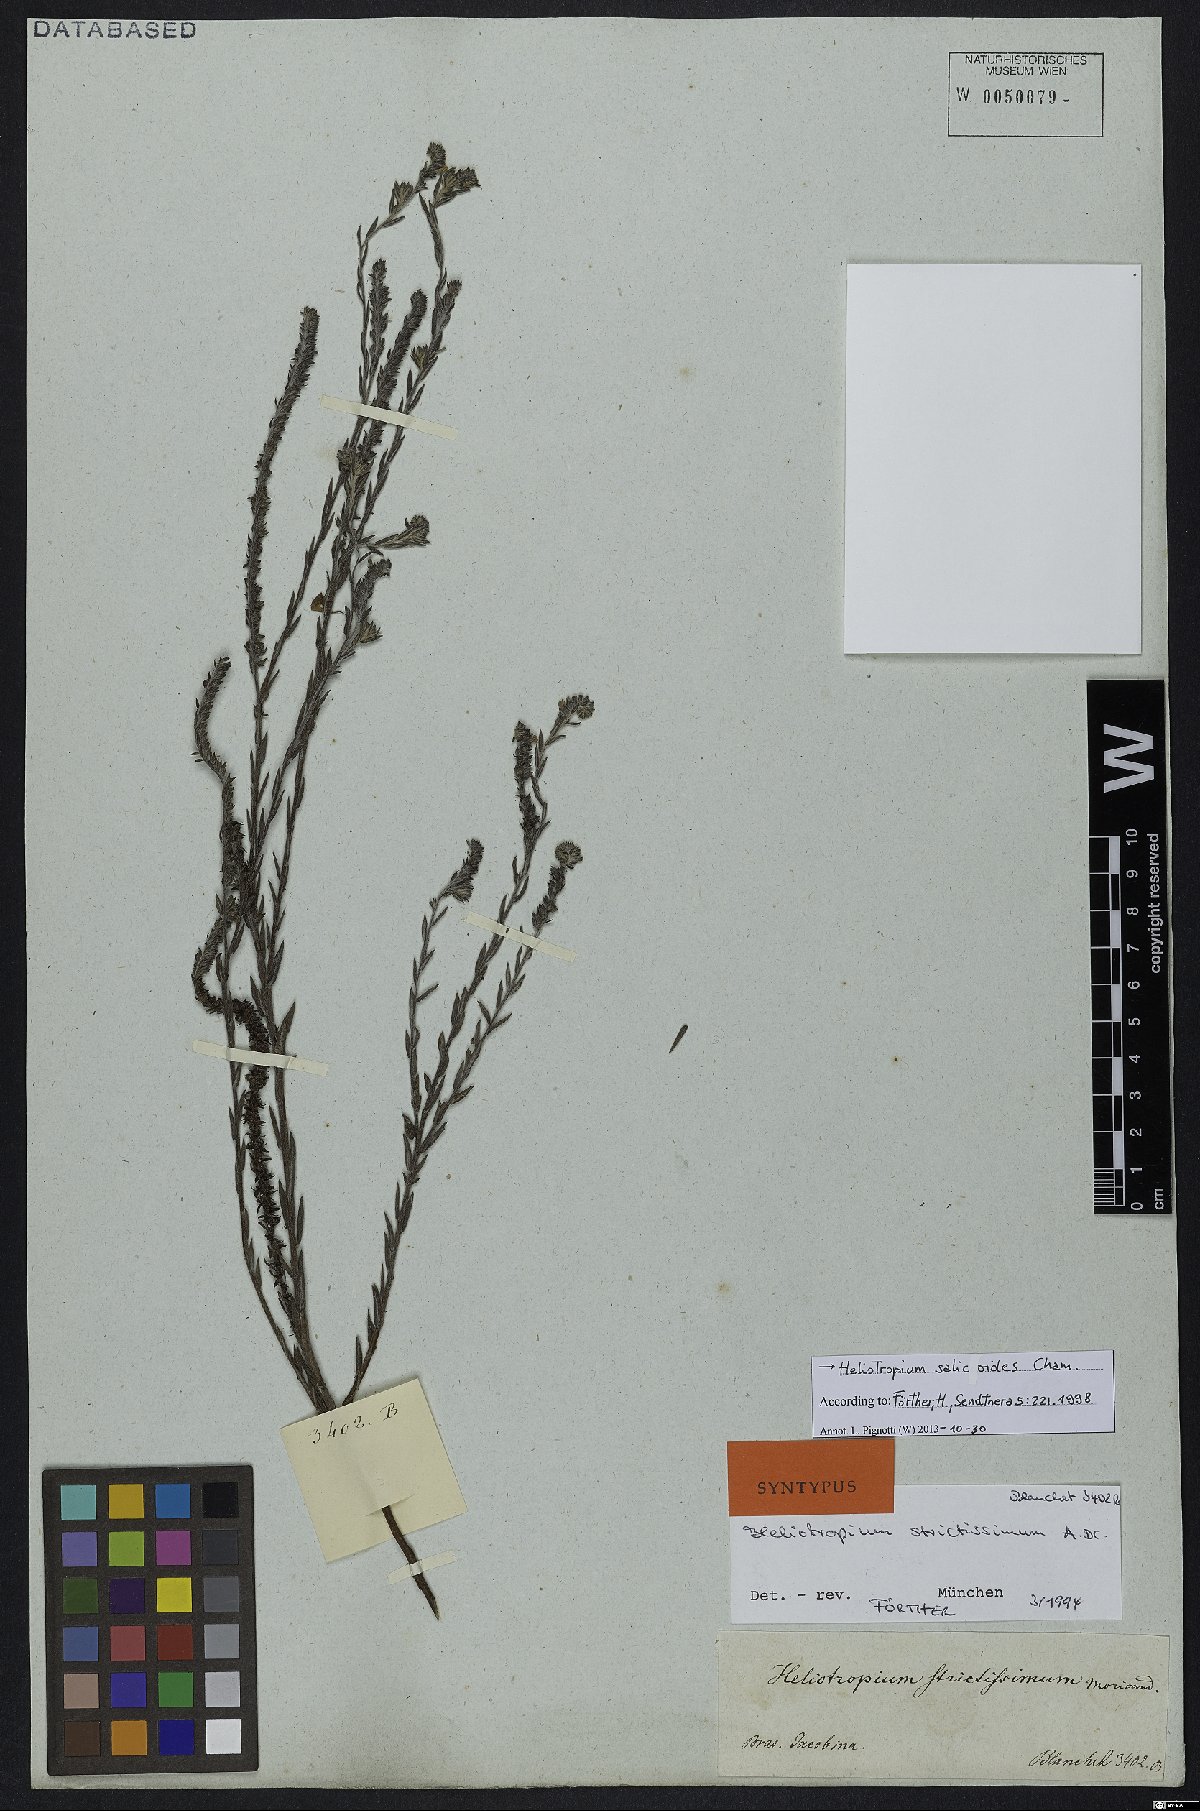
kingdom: Plantae
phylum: Tracheophyta
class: Magnoliopsida
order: Boraginales
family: Heliotropiaceae
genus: Euploca
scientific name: Euploca salicoides
